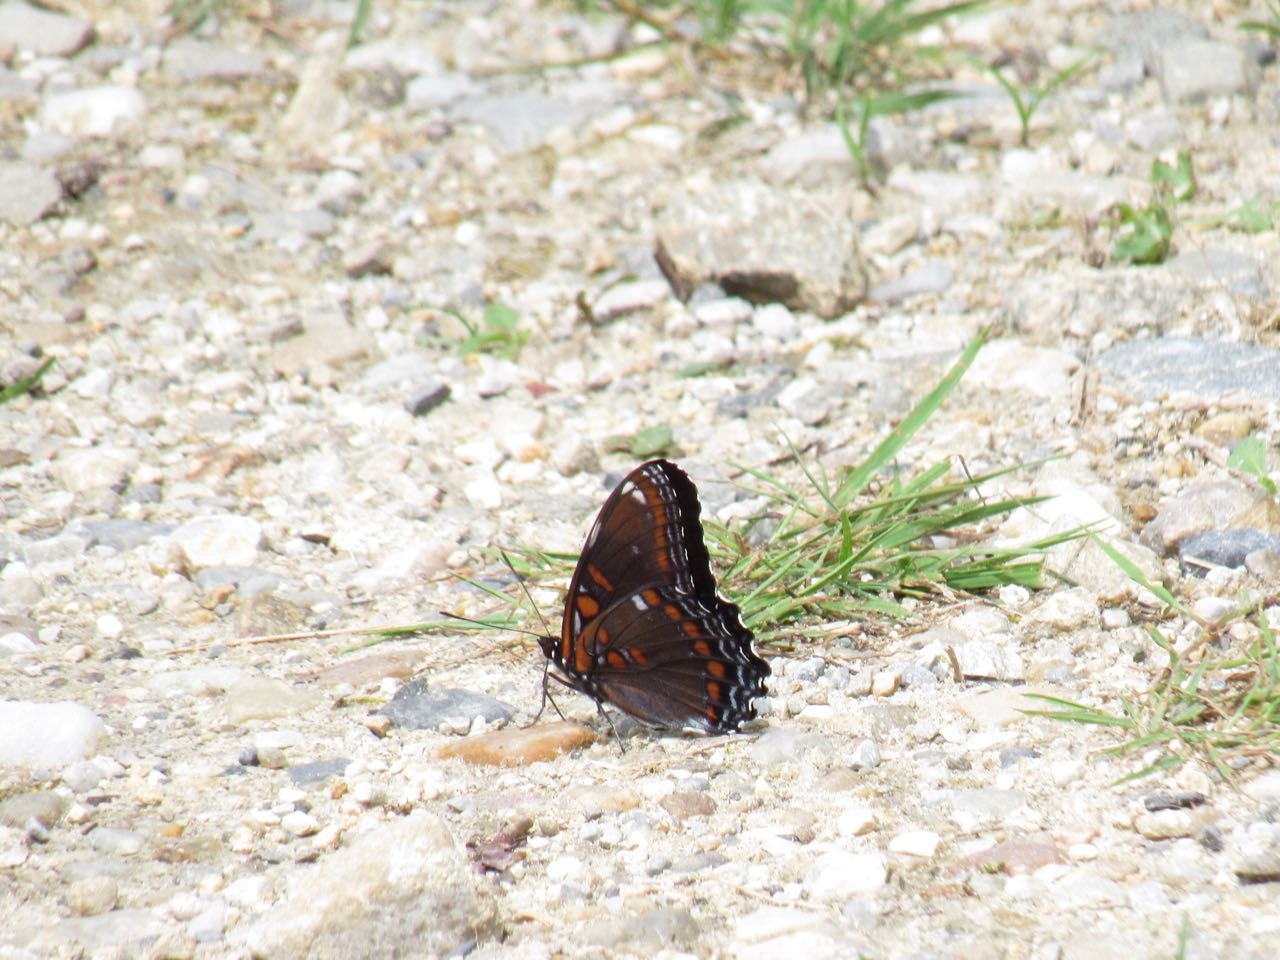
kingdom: Animalia
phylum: Arthropoda
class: Insecta
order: Lepidoptera
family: Nymphalidae
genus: Limenitis
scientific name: Limenitis
